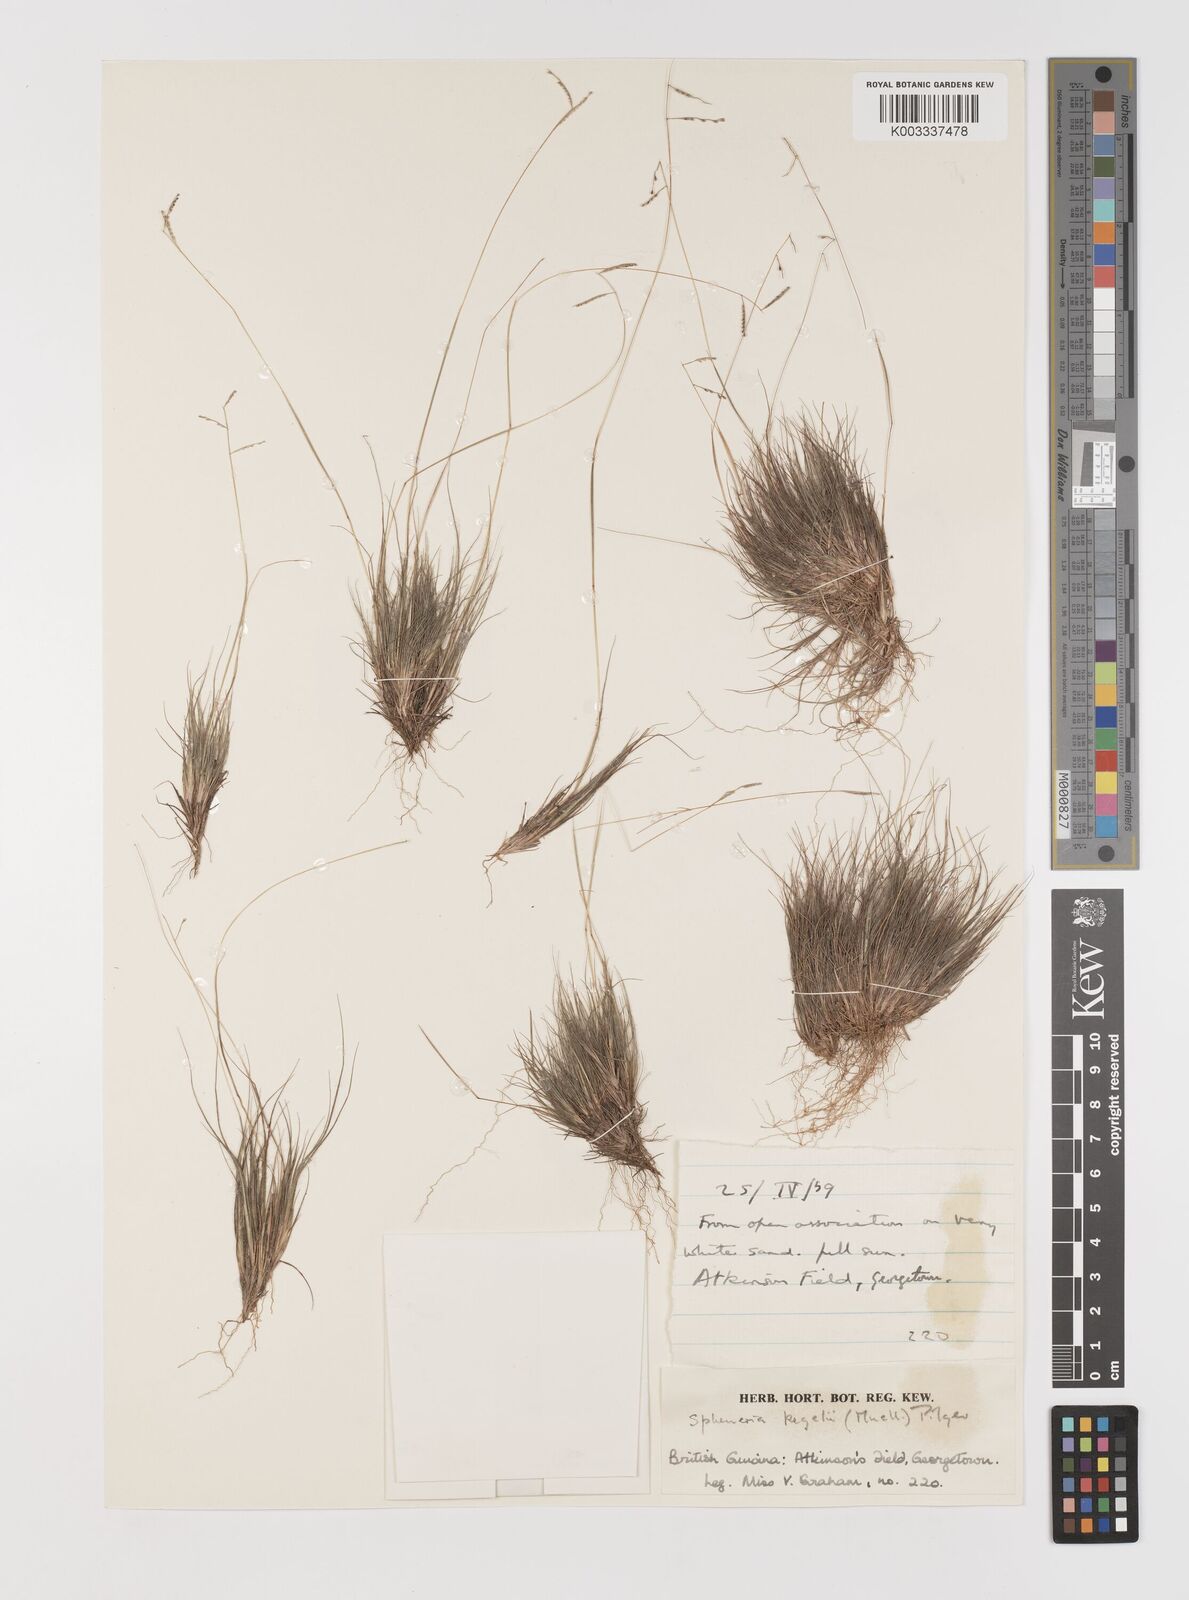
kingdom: Plantae
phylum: Tracheophyta
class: Liliopsida
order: Poales
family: Poaceae
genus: Spheneria
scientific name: Spheneria kegelii
